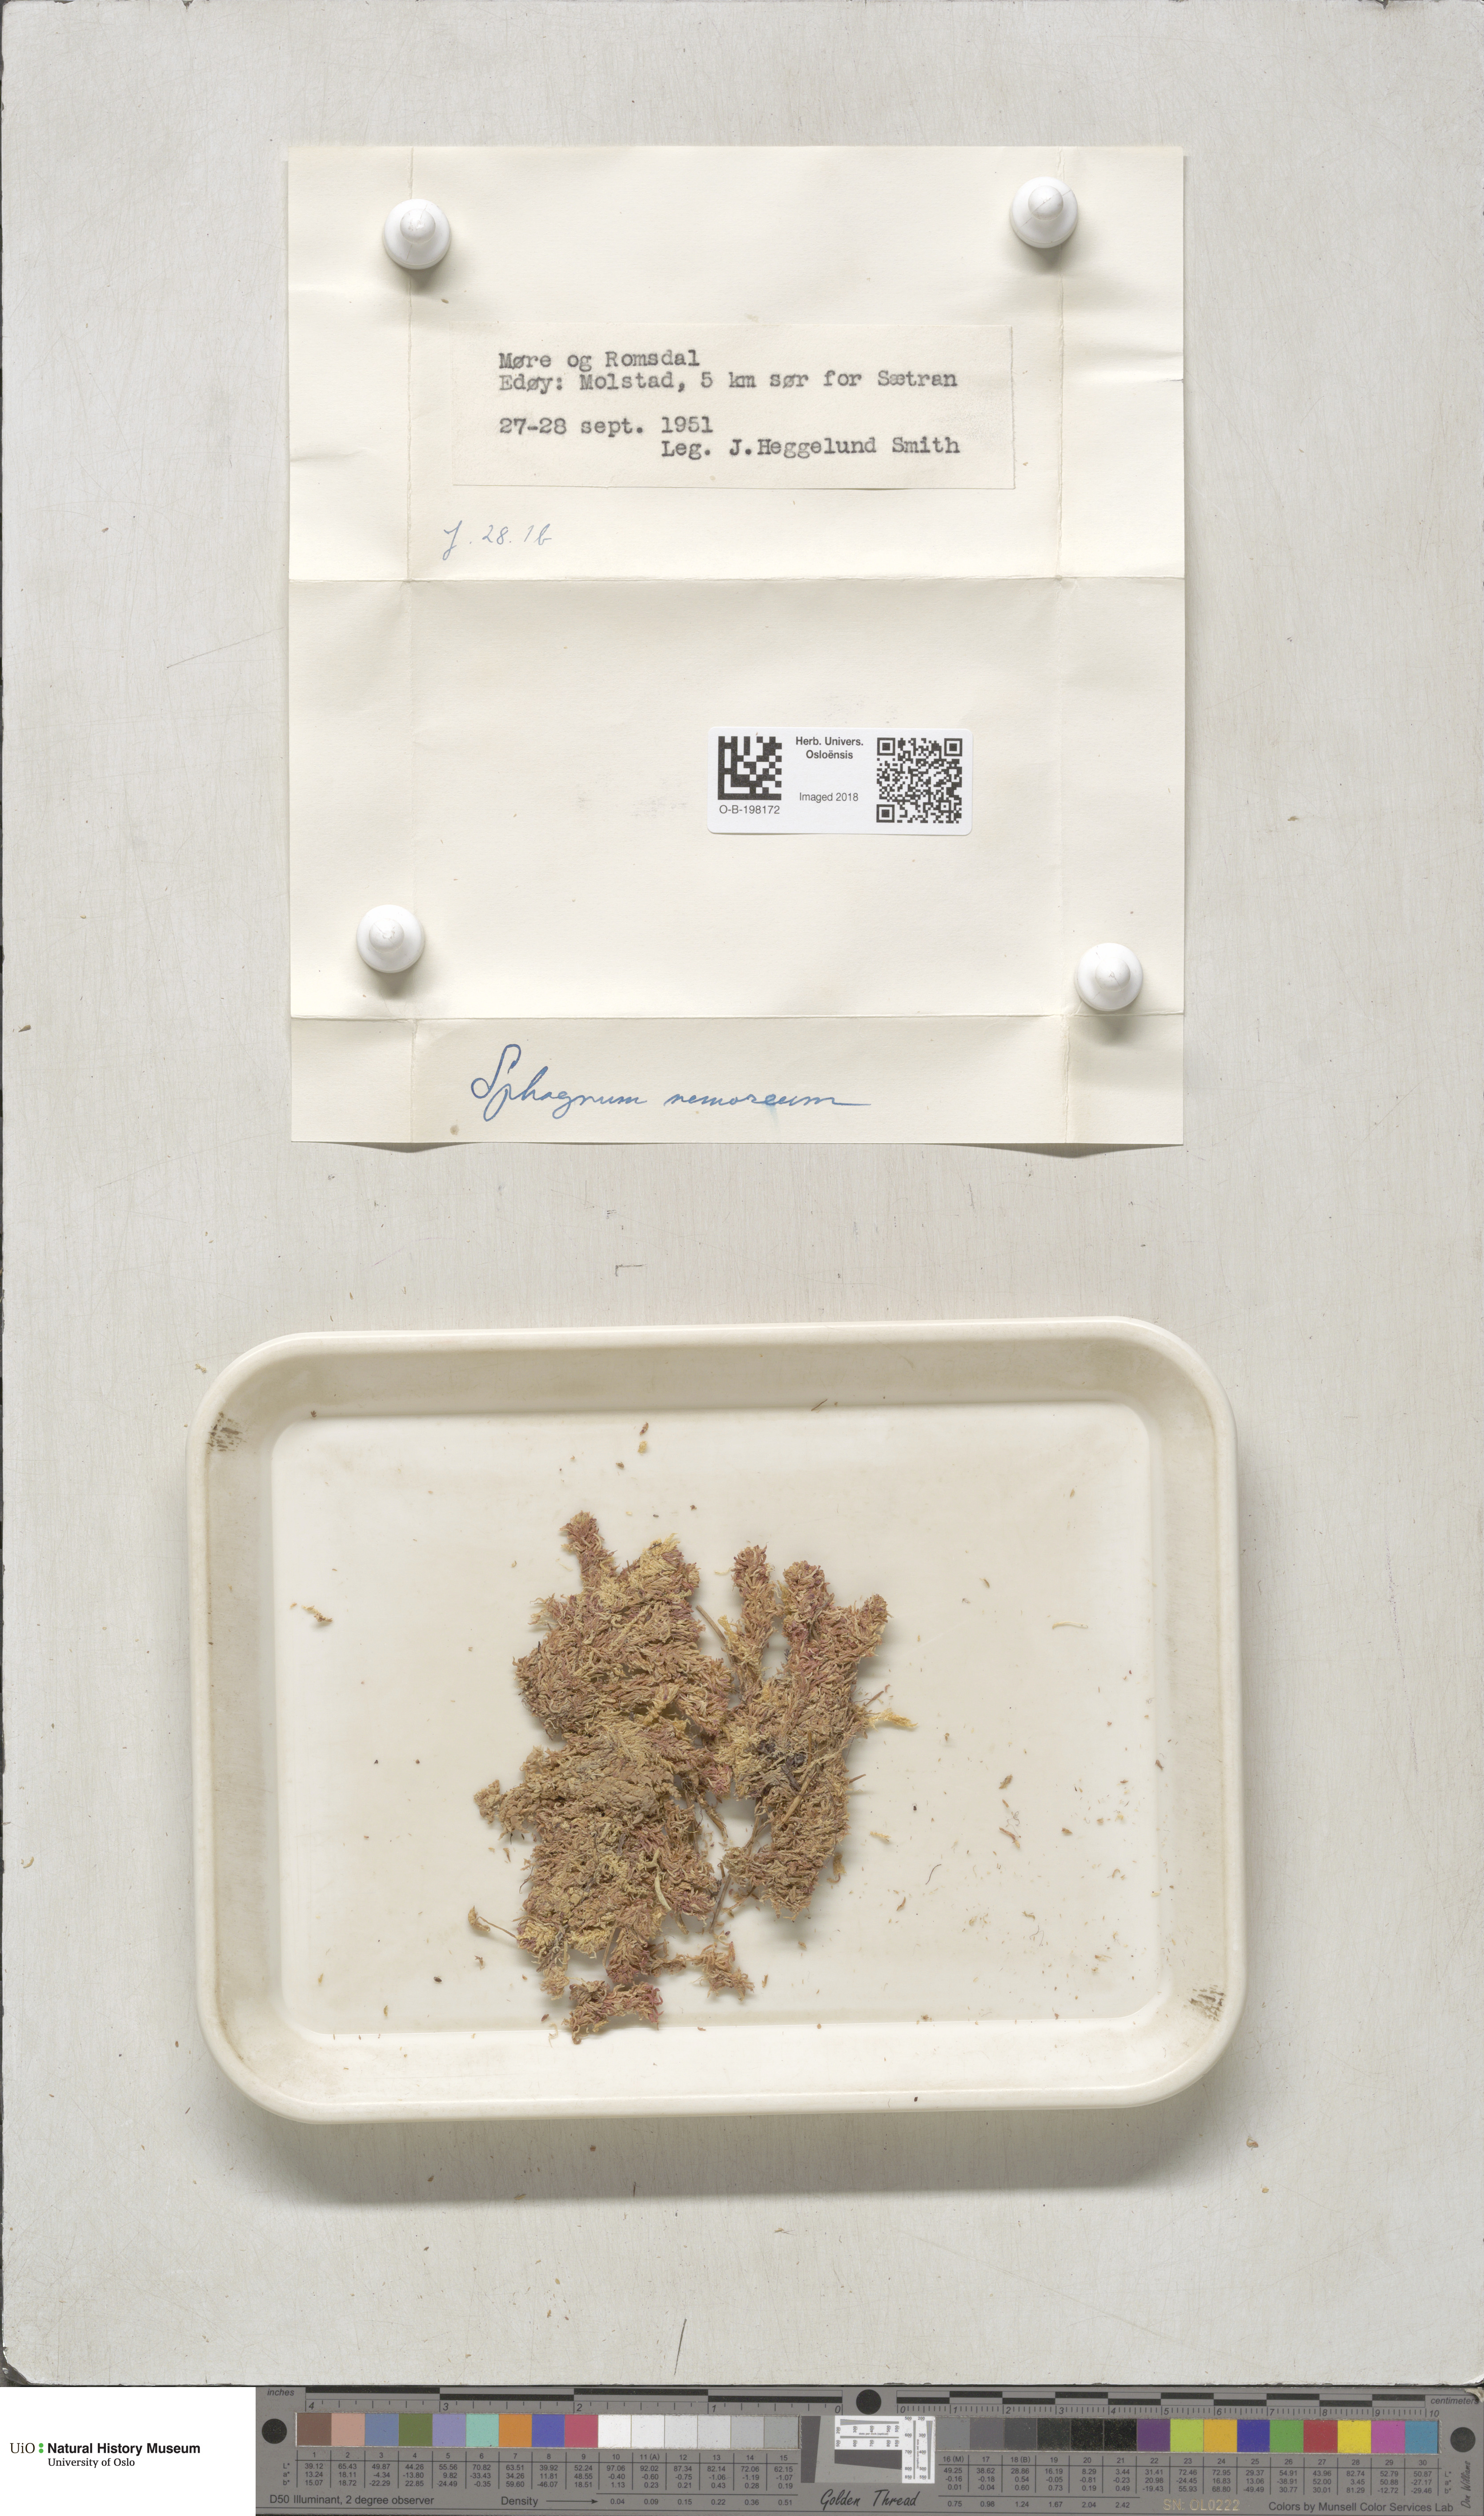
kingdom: Plantae
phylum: Bryophyta
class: Sphagnopsida
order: Sphagnales
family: Sphagnaceae
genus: Sphagnum
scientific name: Sphagnum capillifolium
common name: Small red peat moss
